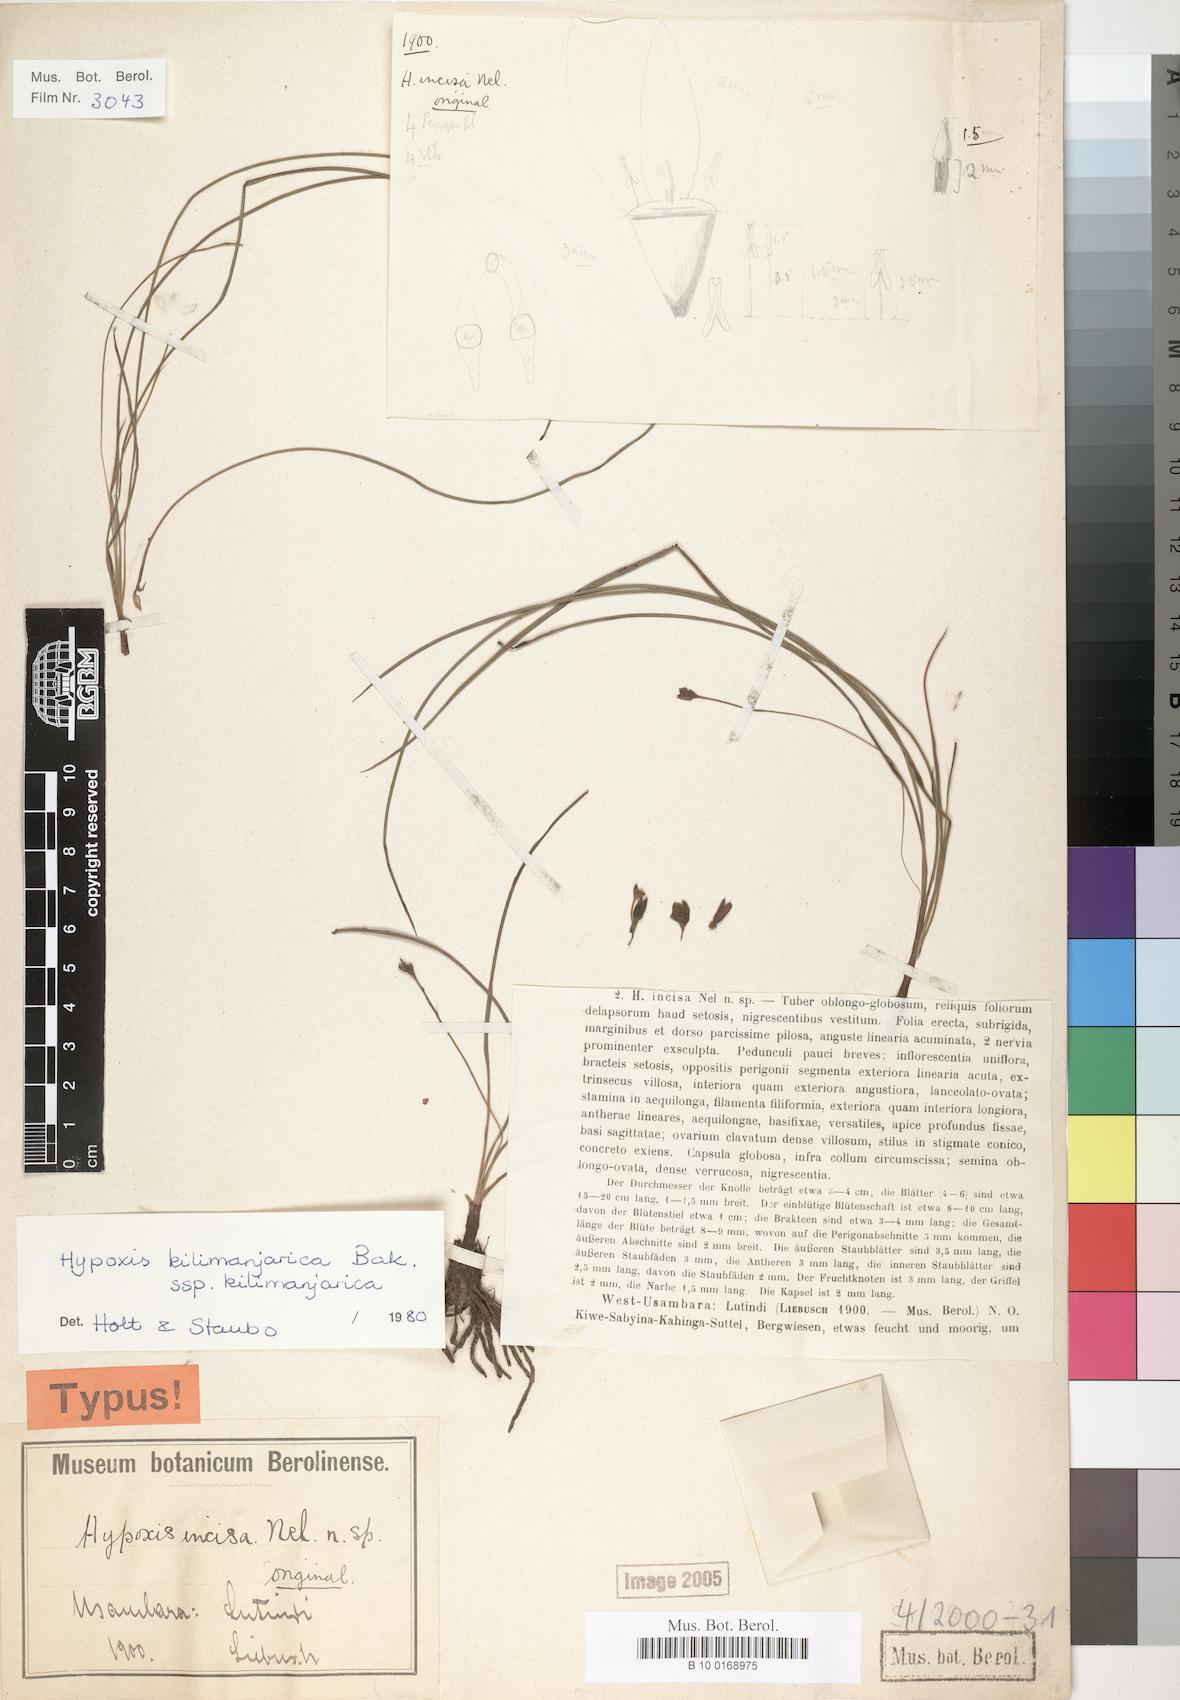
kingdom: Plantae
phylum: Tracheophyta
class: Liliopsida
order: Asparagales
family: Hypoxidaceae
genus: Hypoxis
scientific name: Hypoxis kilimanjarica
